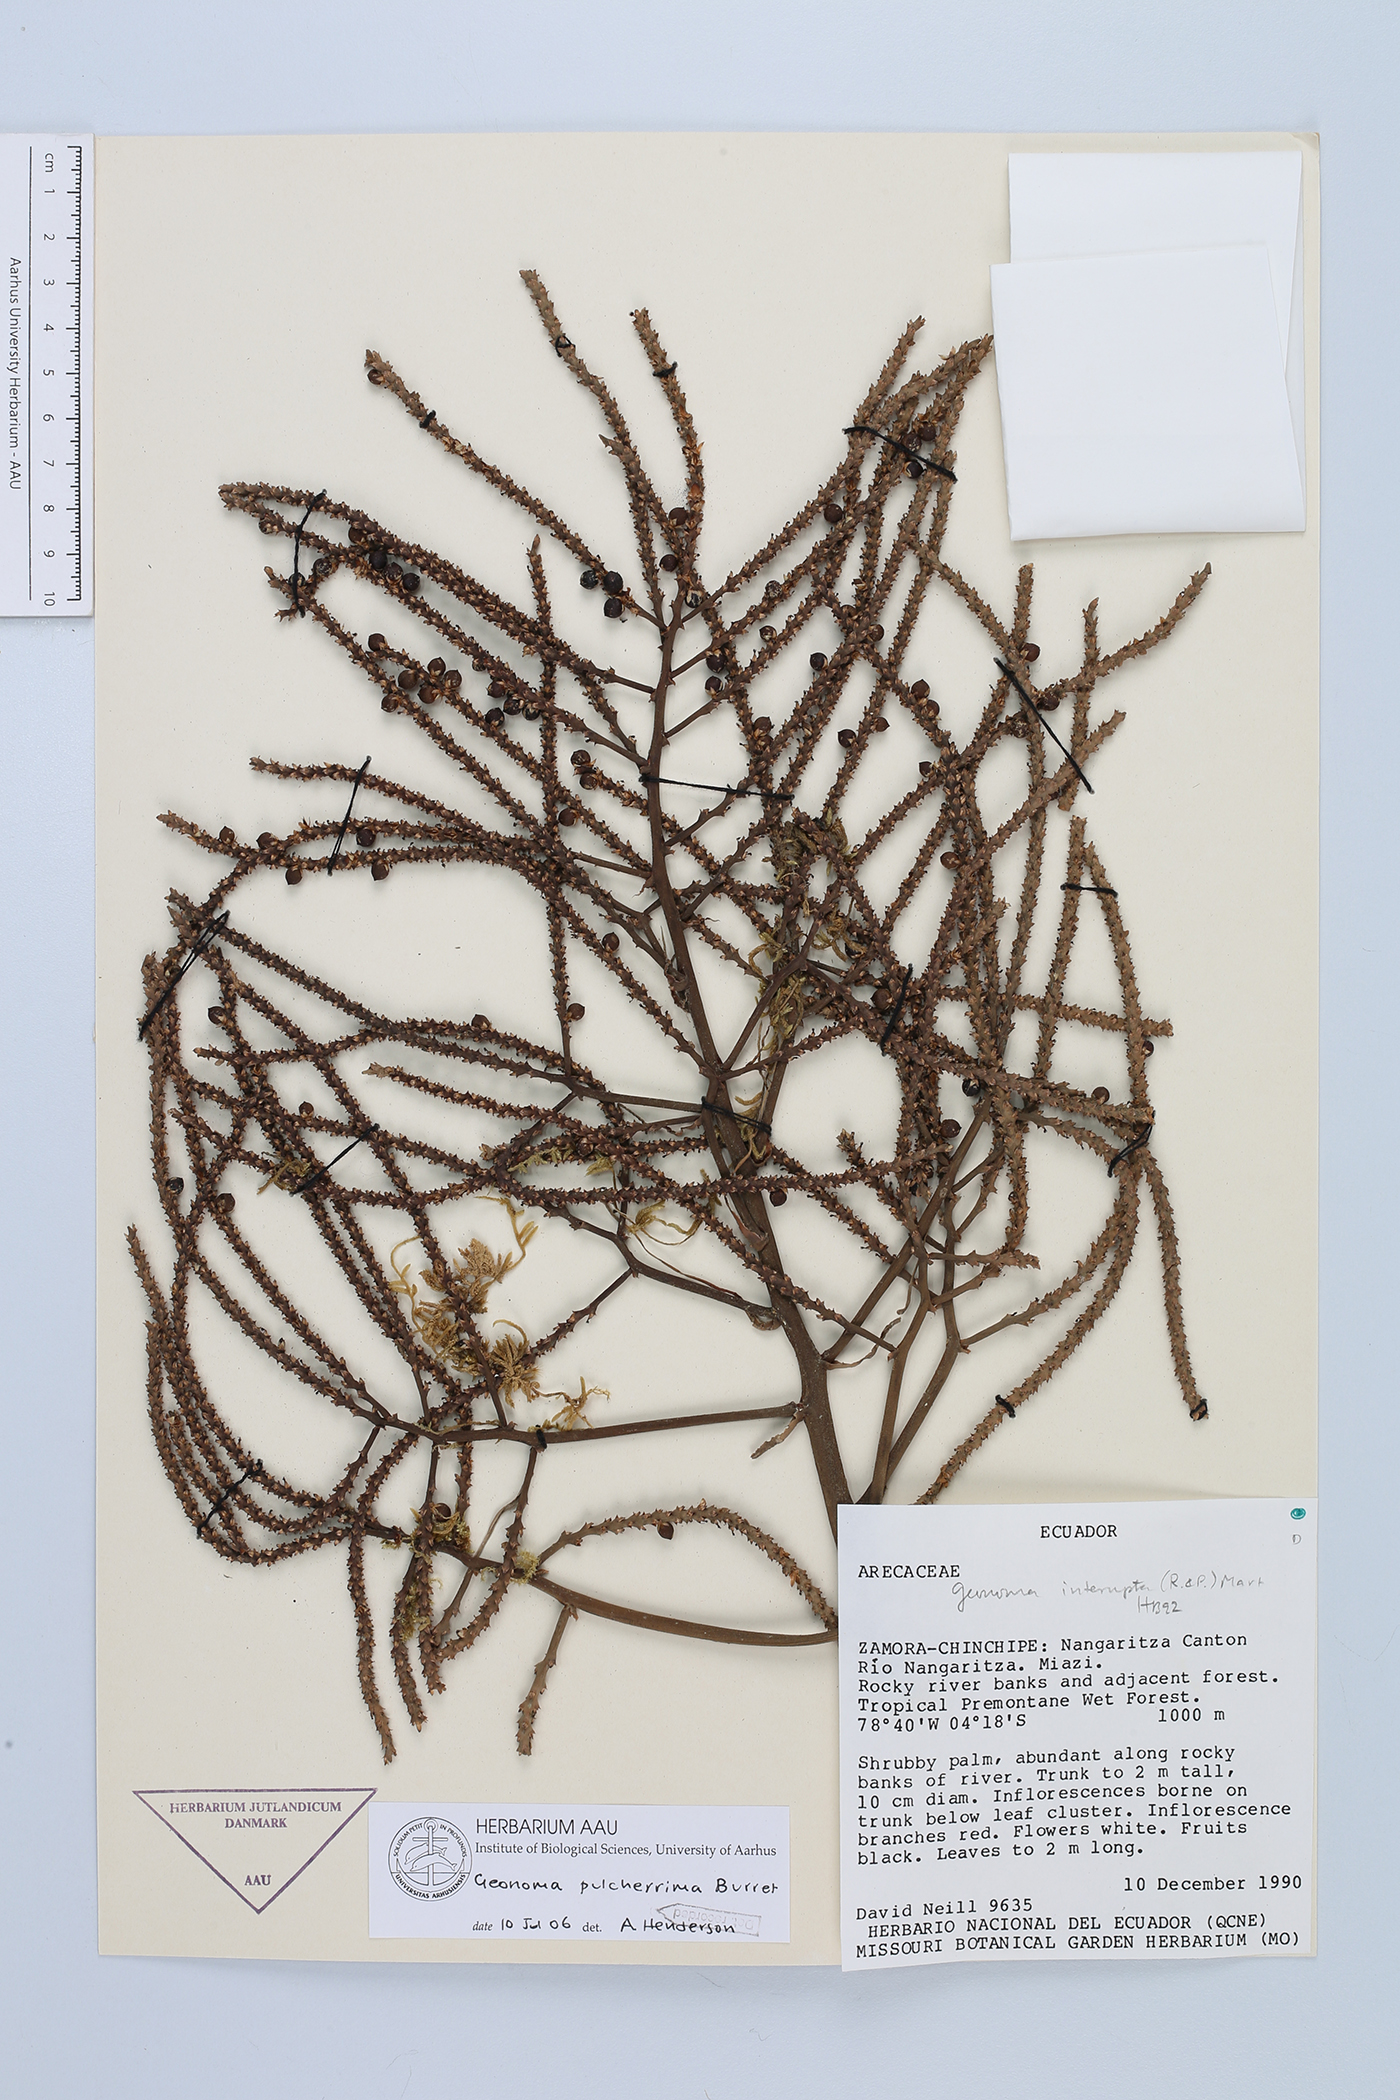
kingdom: Plantae
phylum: Tracheophyta
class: Liliopsida
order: Arecales
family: Arecaceae
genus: Geonoma
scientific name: Geonoma undata
